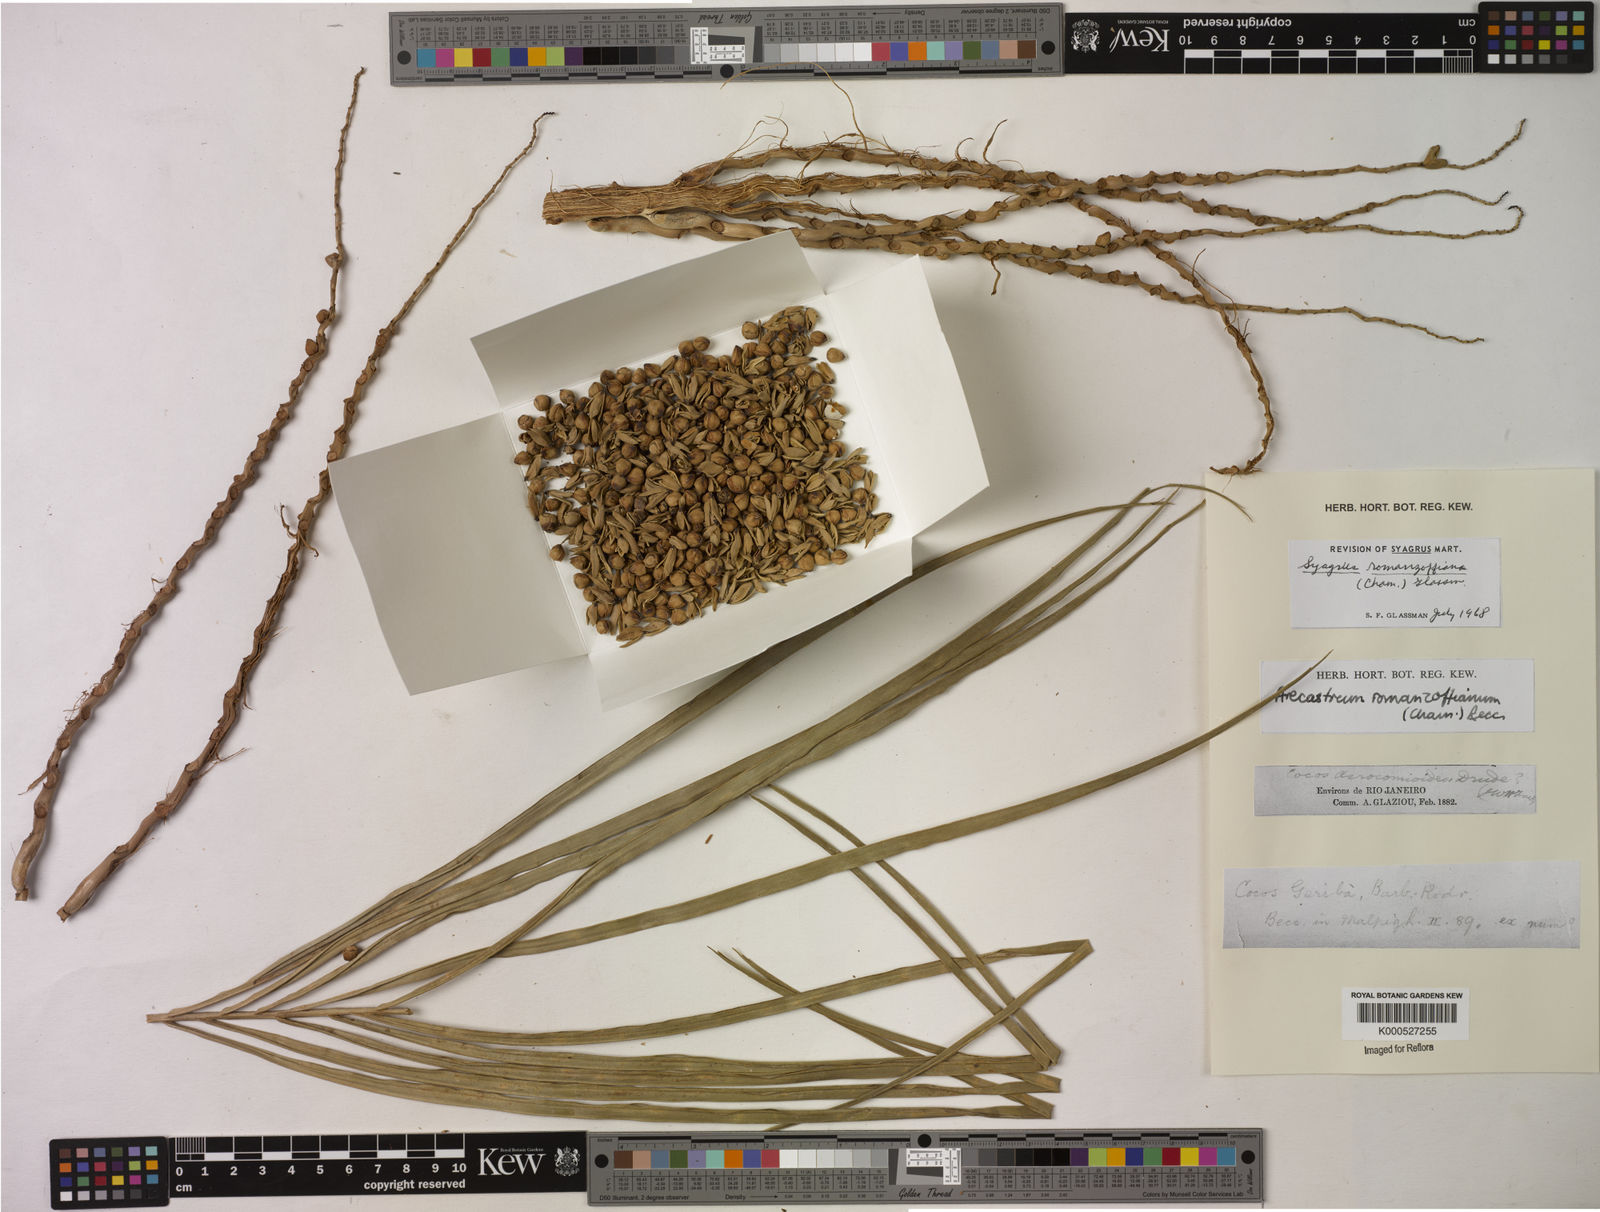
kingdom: Plantae
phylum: Tracheophyta
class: Liliopsida
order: Arecales
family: Arecaceae
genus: Syagrus
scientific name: Syagrus romanzoffiana
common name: Queen palm
